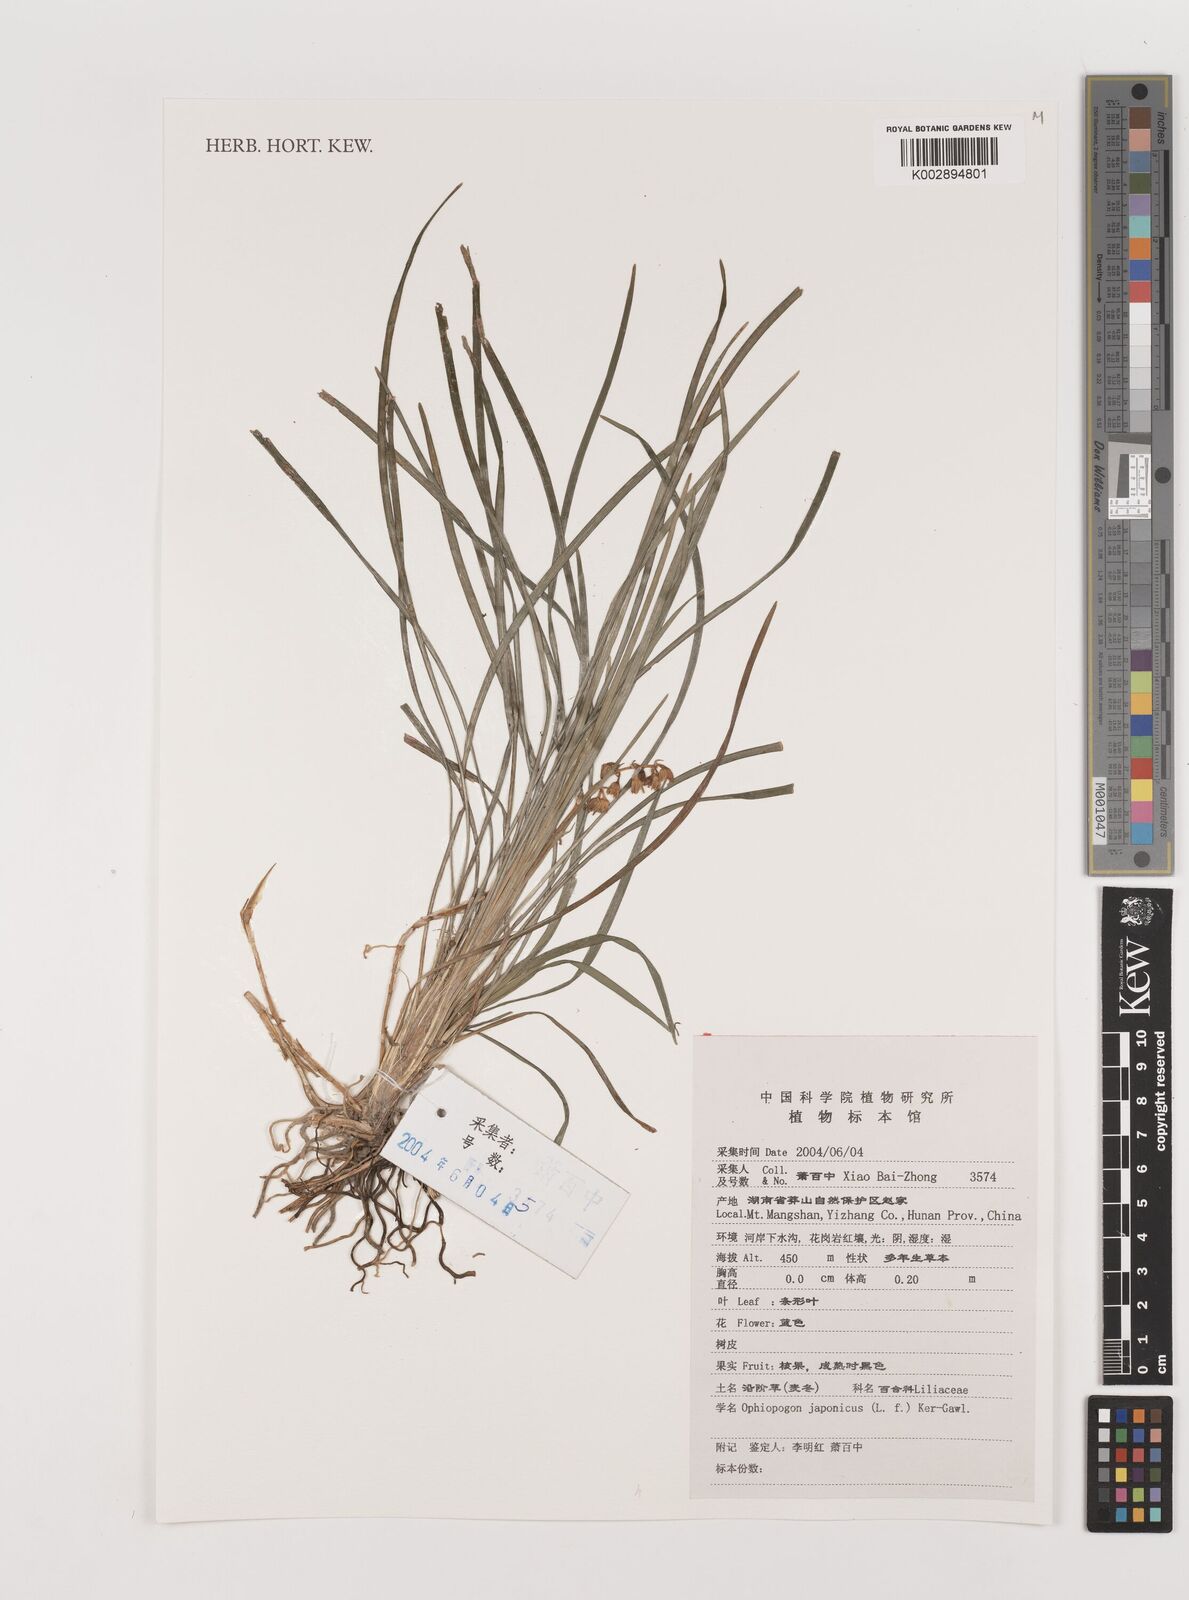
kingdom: Plantae
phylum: Tracheophyta
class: Liliopsida
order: Asparagales
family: Asparagaceae
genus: Ophiopogon
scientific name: Ophiopogon japonicus
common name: Dwarf lilyturf
